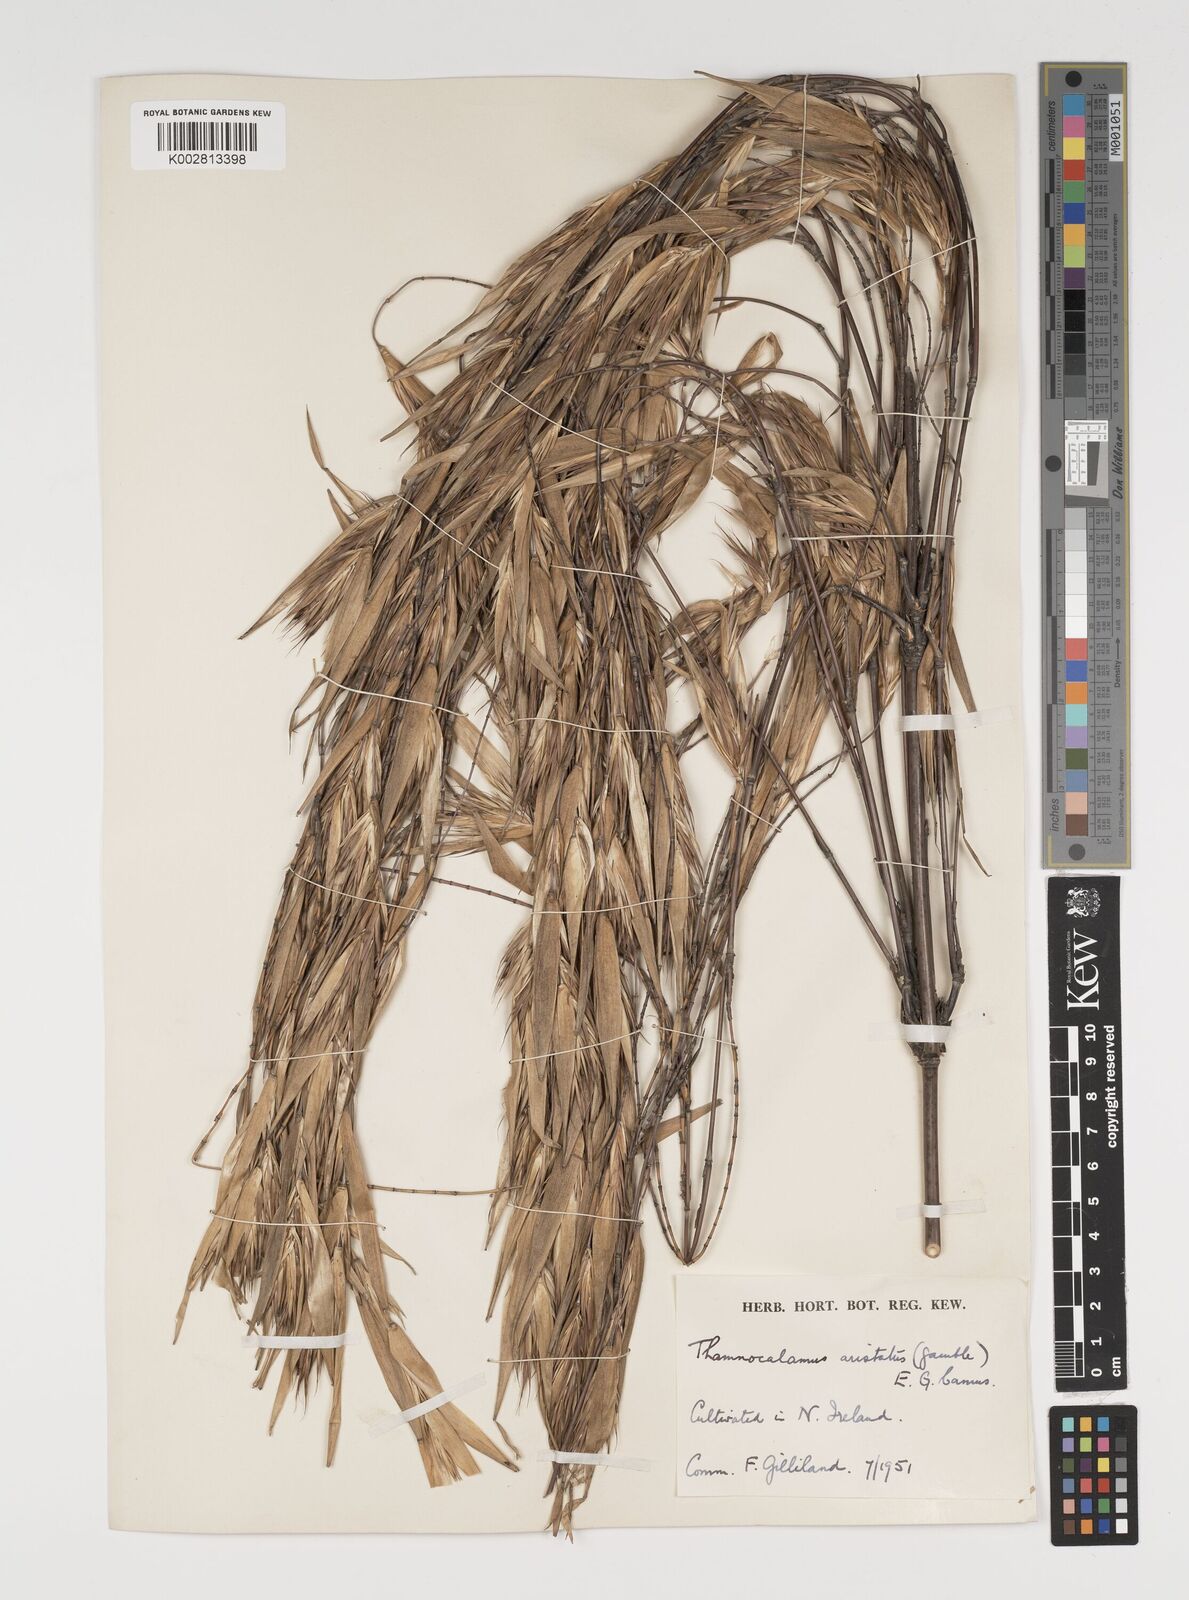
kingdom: Plantae
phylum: Tracheophyta
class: Liliopsida
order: Poales
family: Poaceae
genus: Thamnocalamus
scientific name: Thamnocalamus spathiflorus
